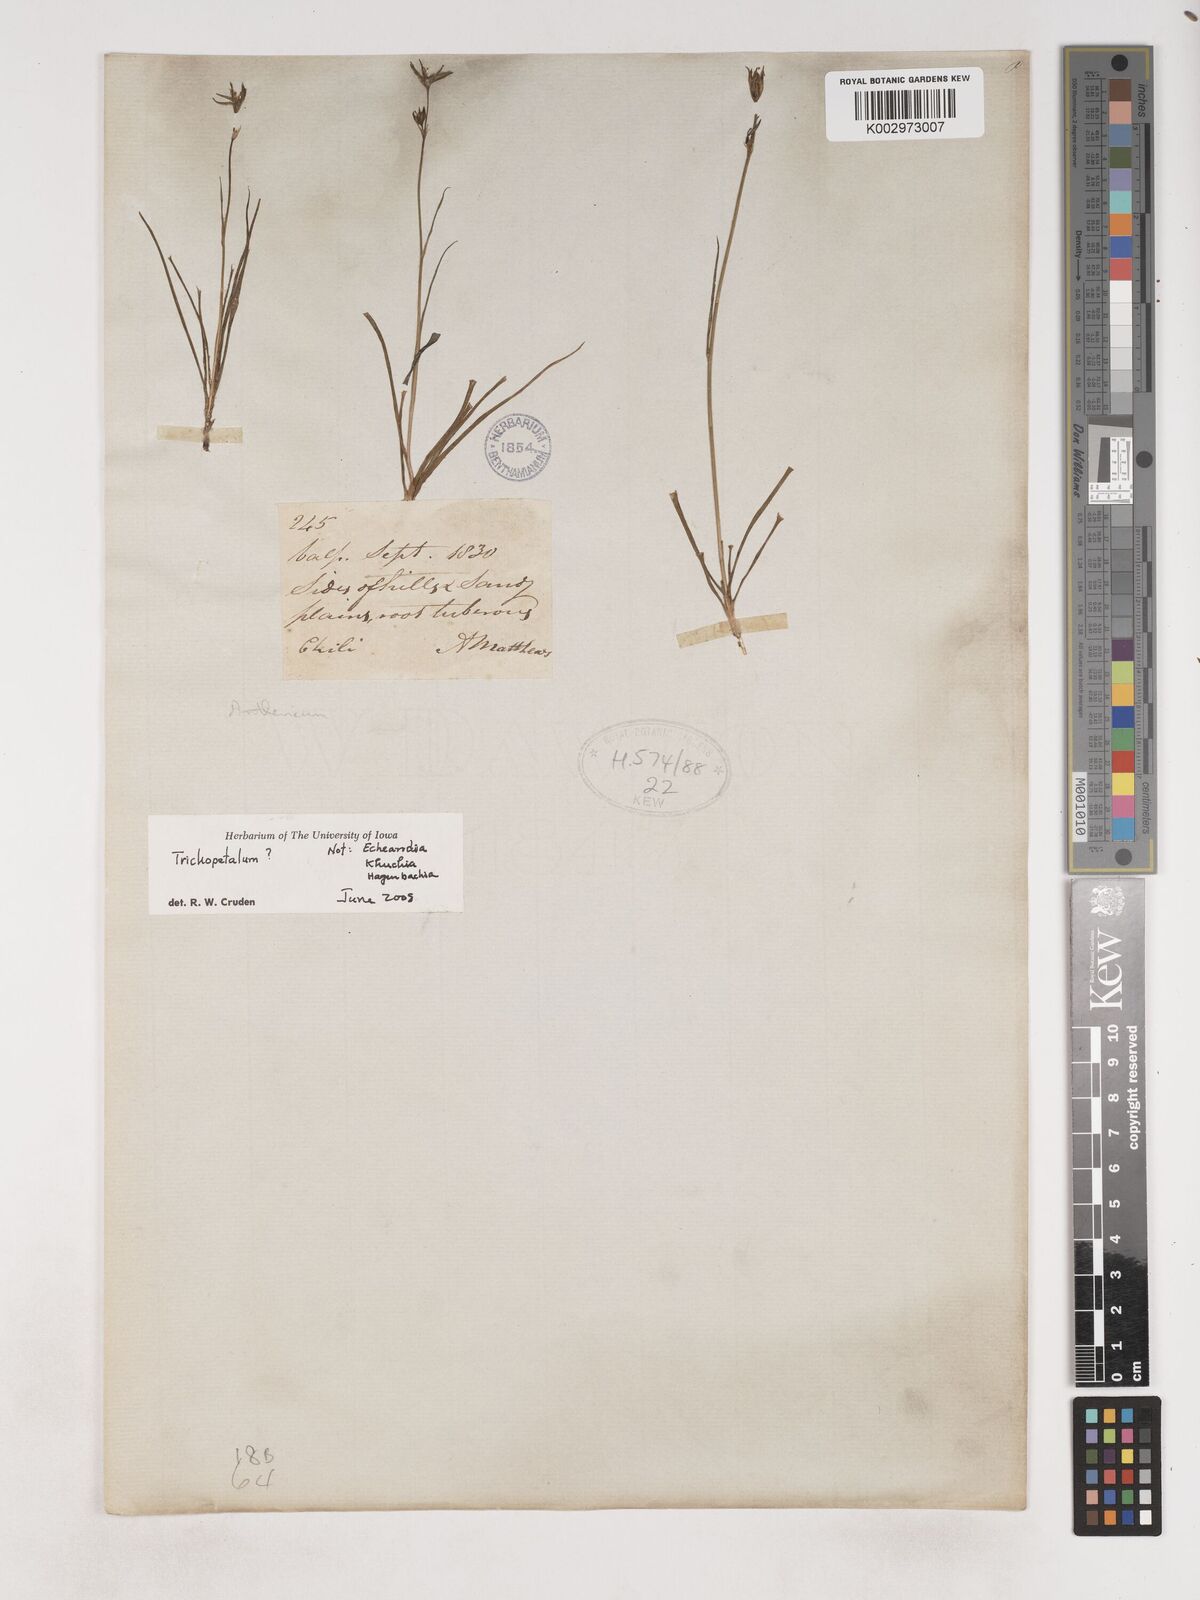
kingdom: Plantae
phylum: Tracheophyta
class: Liliopsida
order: Asparagales
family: Asparagaceae
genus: Trichopetalum
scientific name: Trichopetalum
